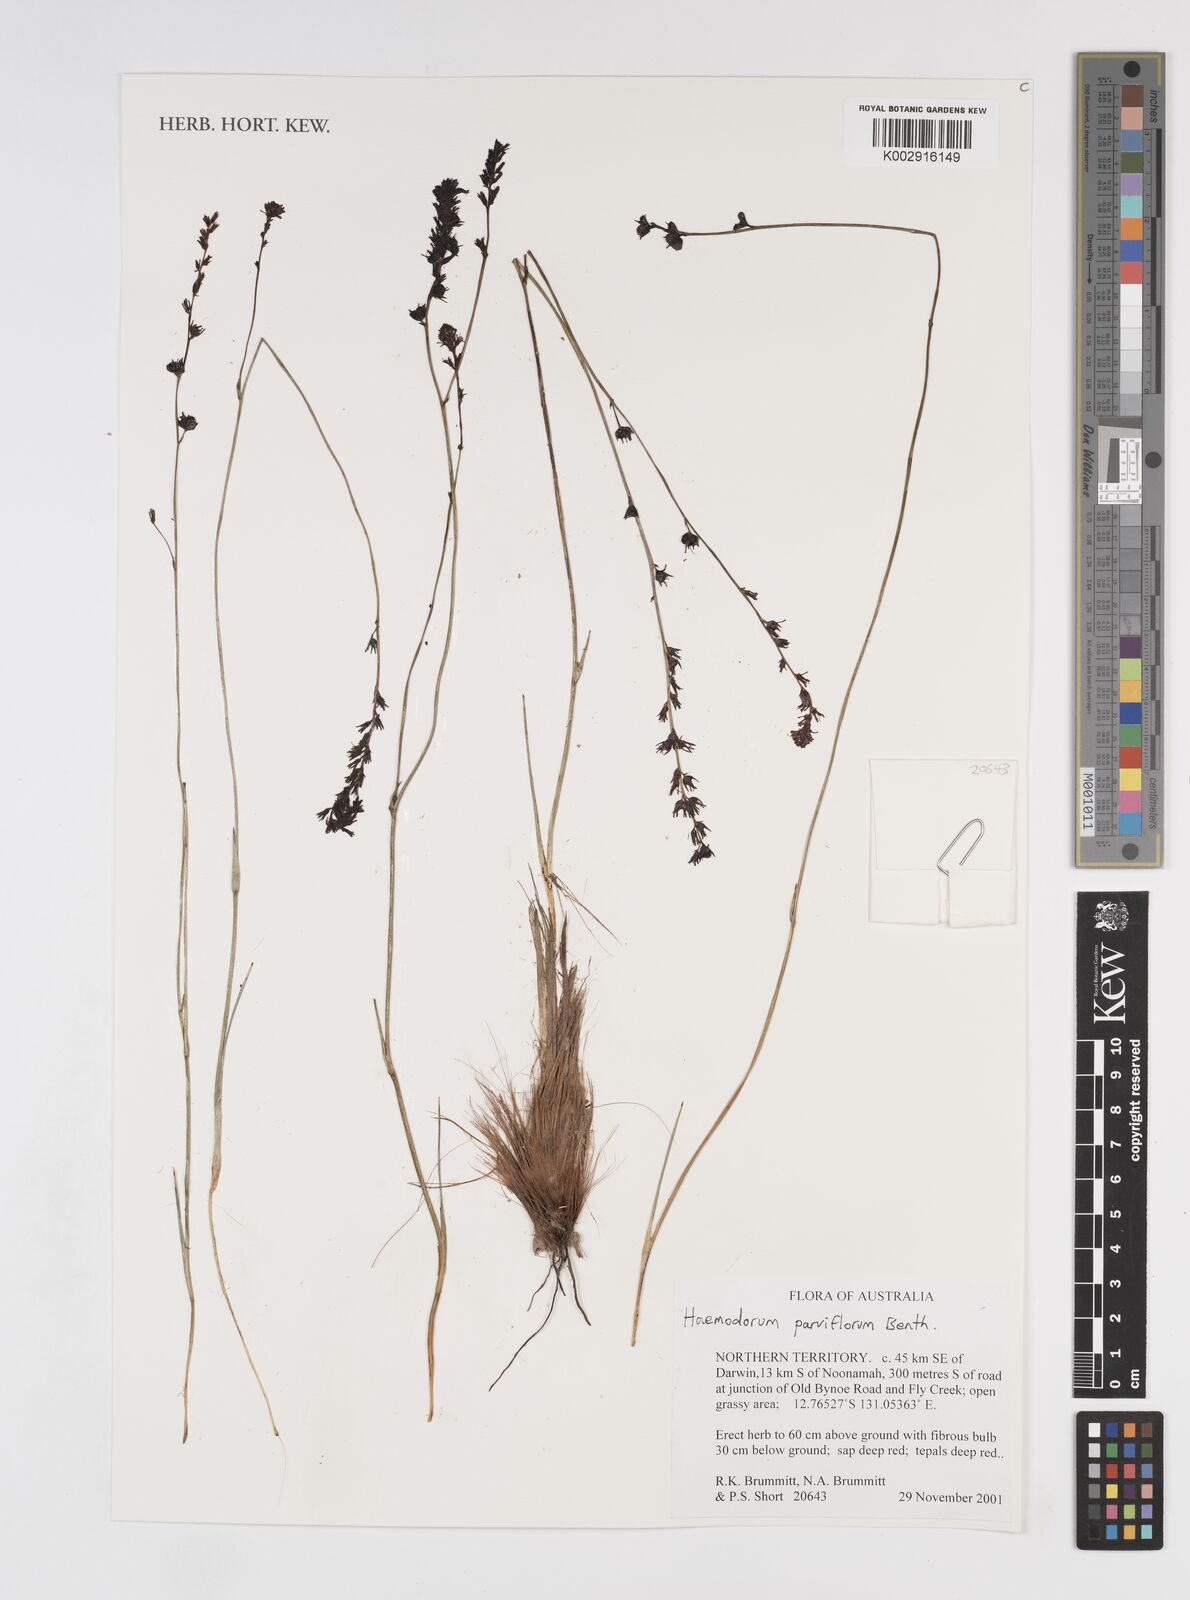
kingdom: Plantae
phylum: Tracheophyta
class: Liliopsida
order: Commelinales
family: Haemodoraceae
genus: Haemodorum
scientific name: Haemodorum parviflorum
